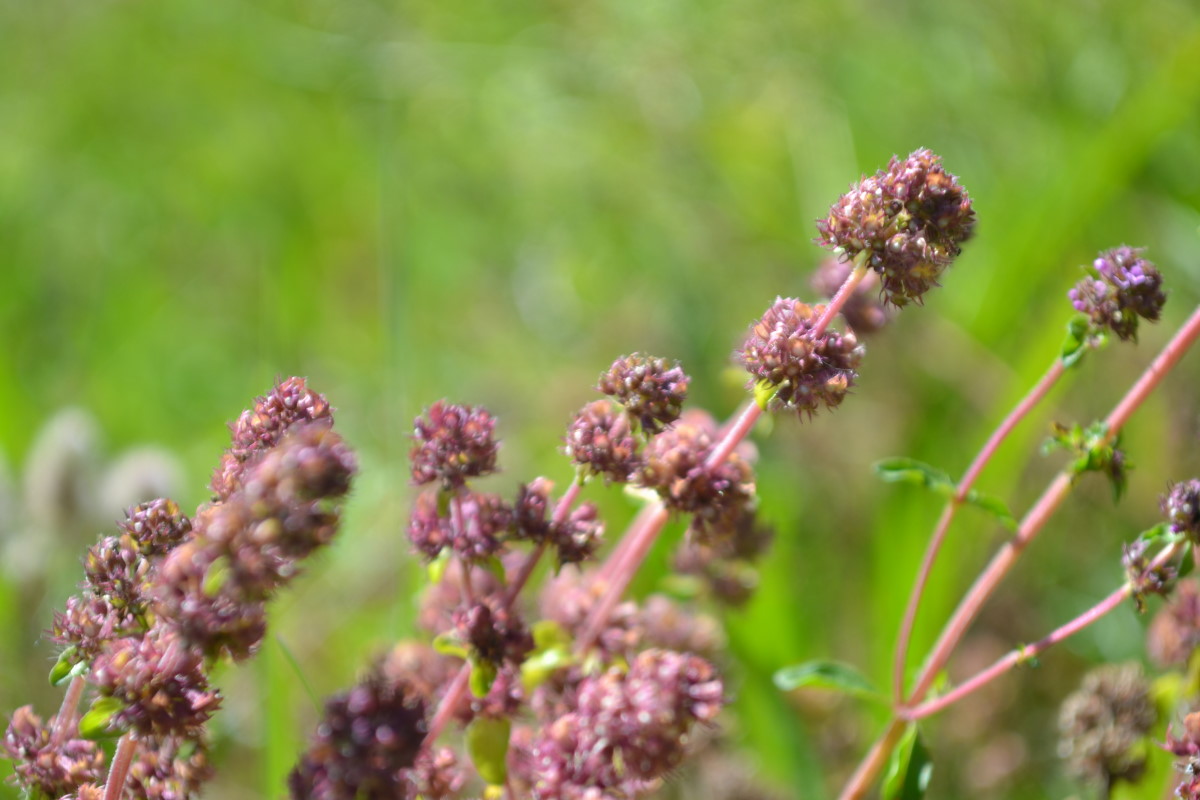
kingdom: Plantae
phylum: Tracheophyta
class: Magnoliopsida
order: Lamiales
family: Lamiaceae
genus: Thymus
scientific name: Thymus pulegioides
